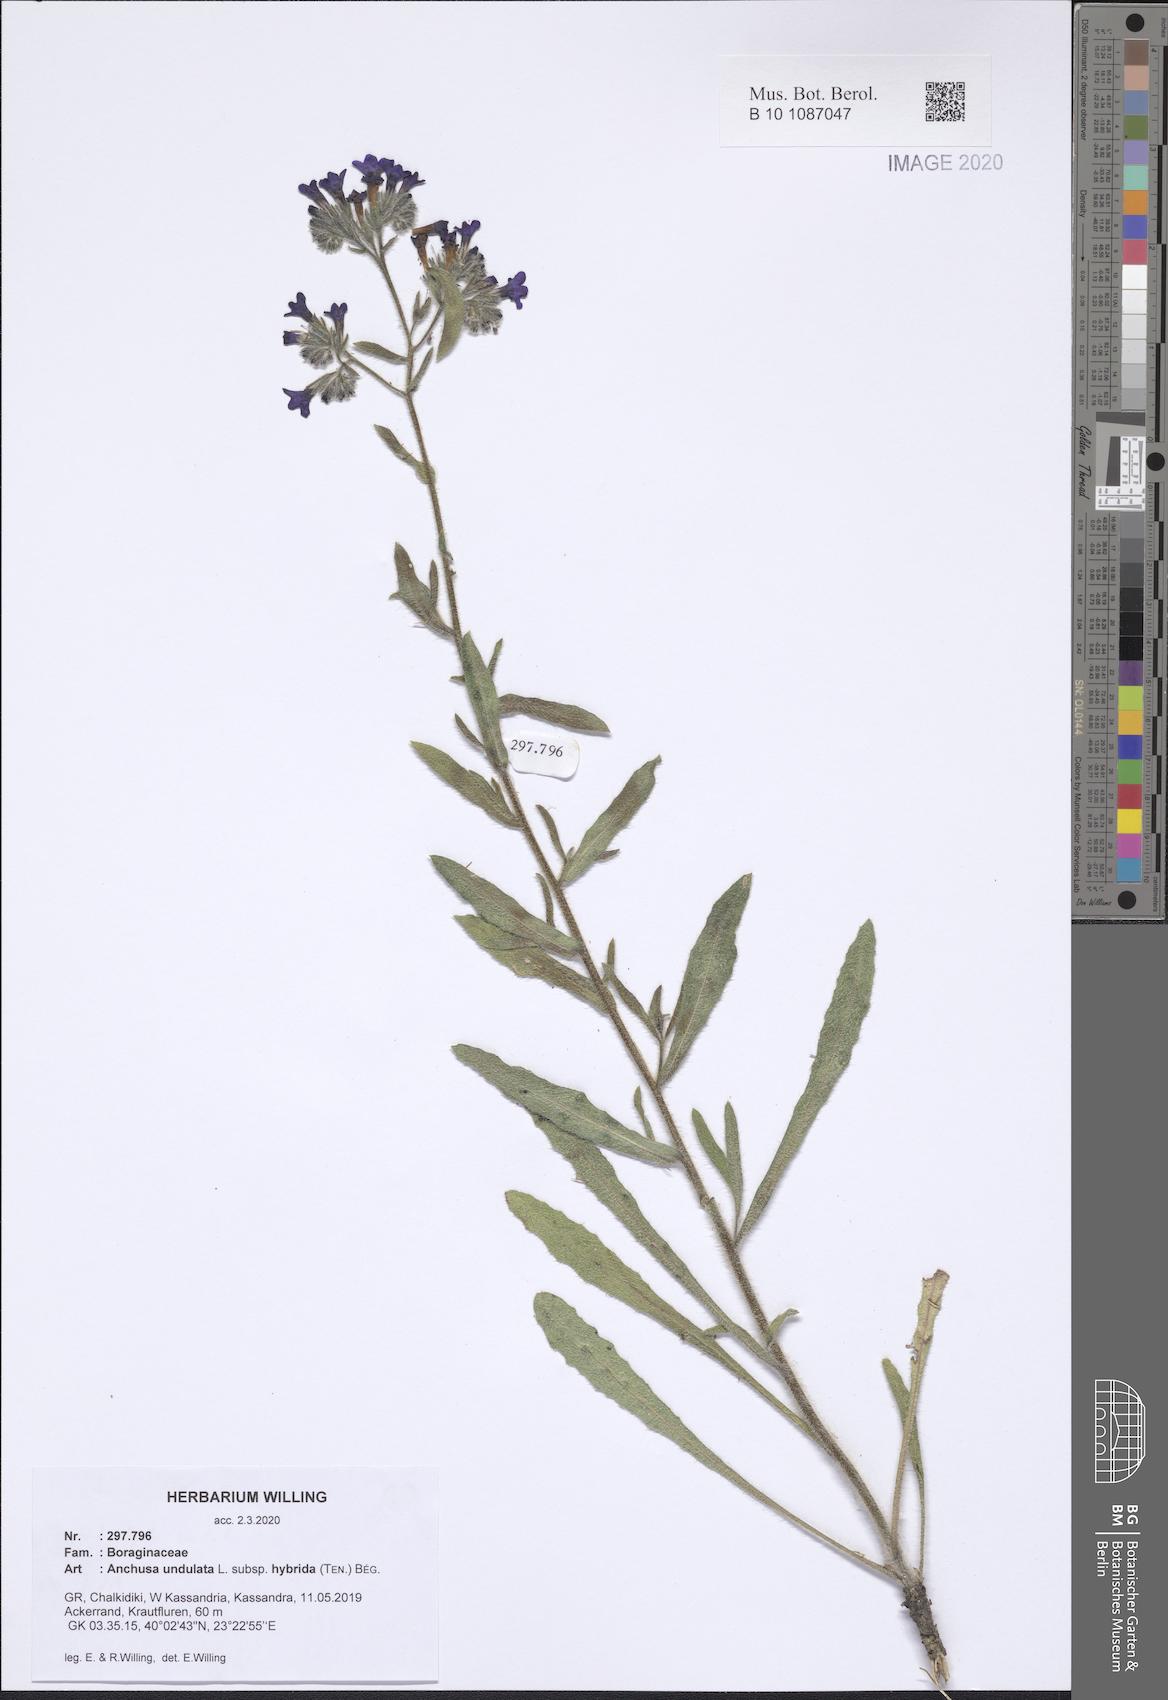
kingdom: Plantae
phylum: Tracheophyta
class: Magnoliopsida
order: Boraginales
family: Boraginaceae
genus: Anchusa
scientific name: Anchusa undulata
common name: Undulate alkanet
